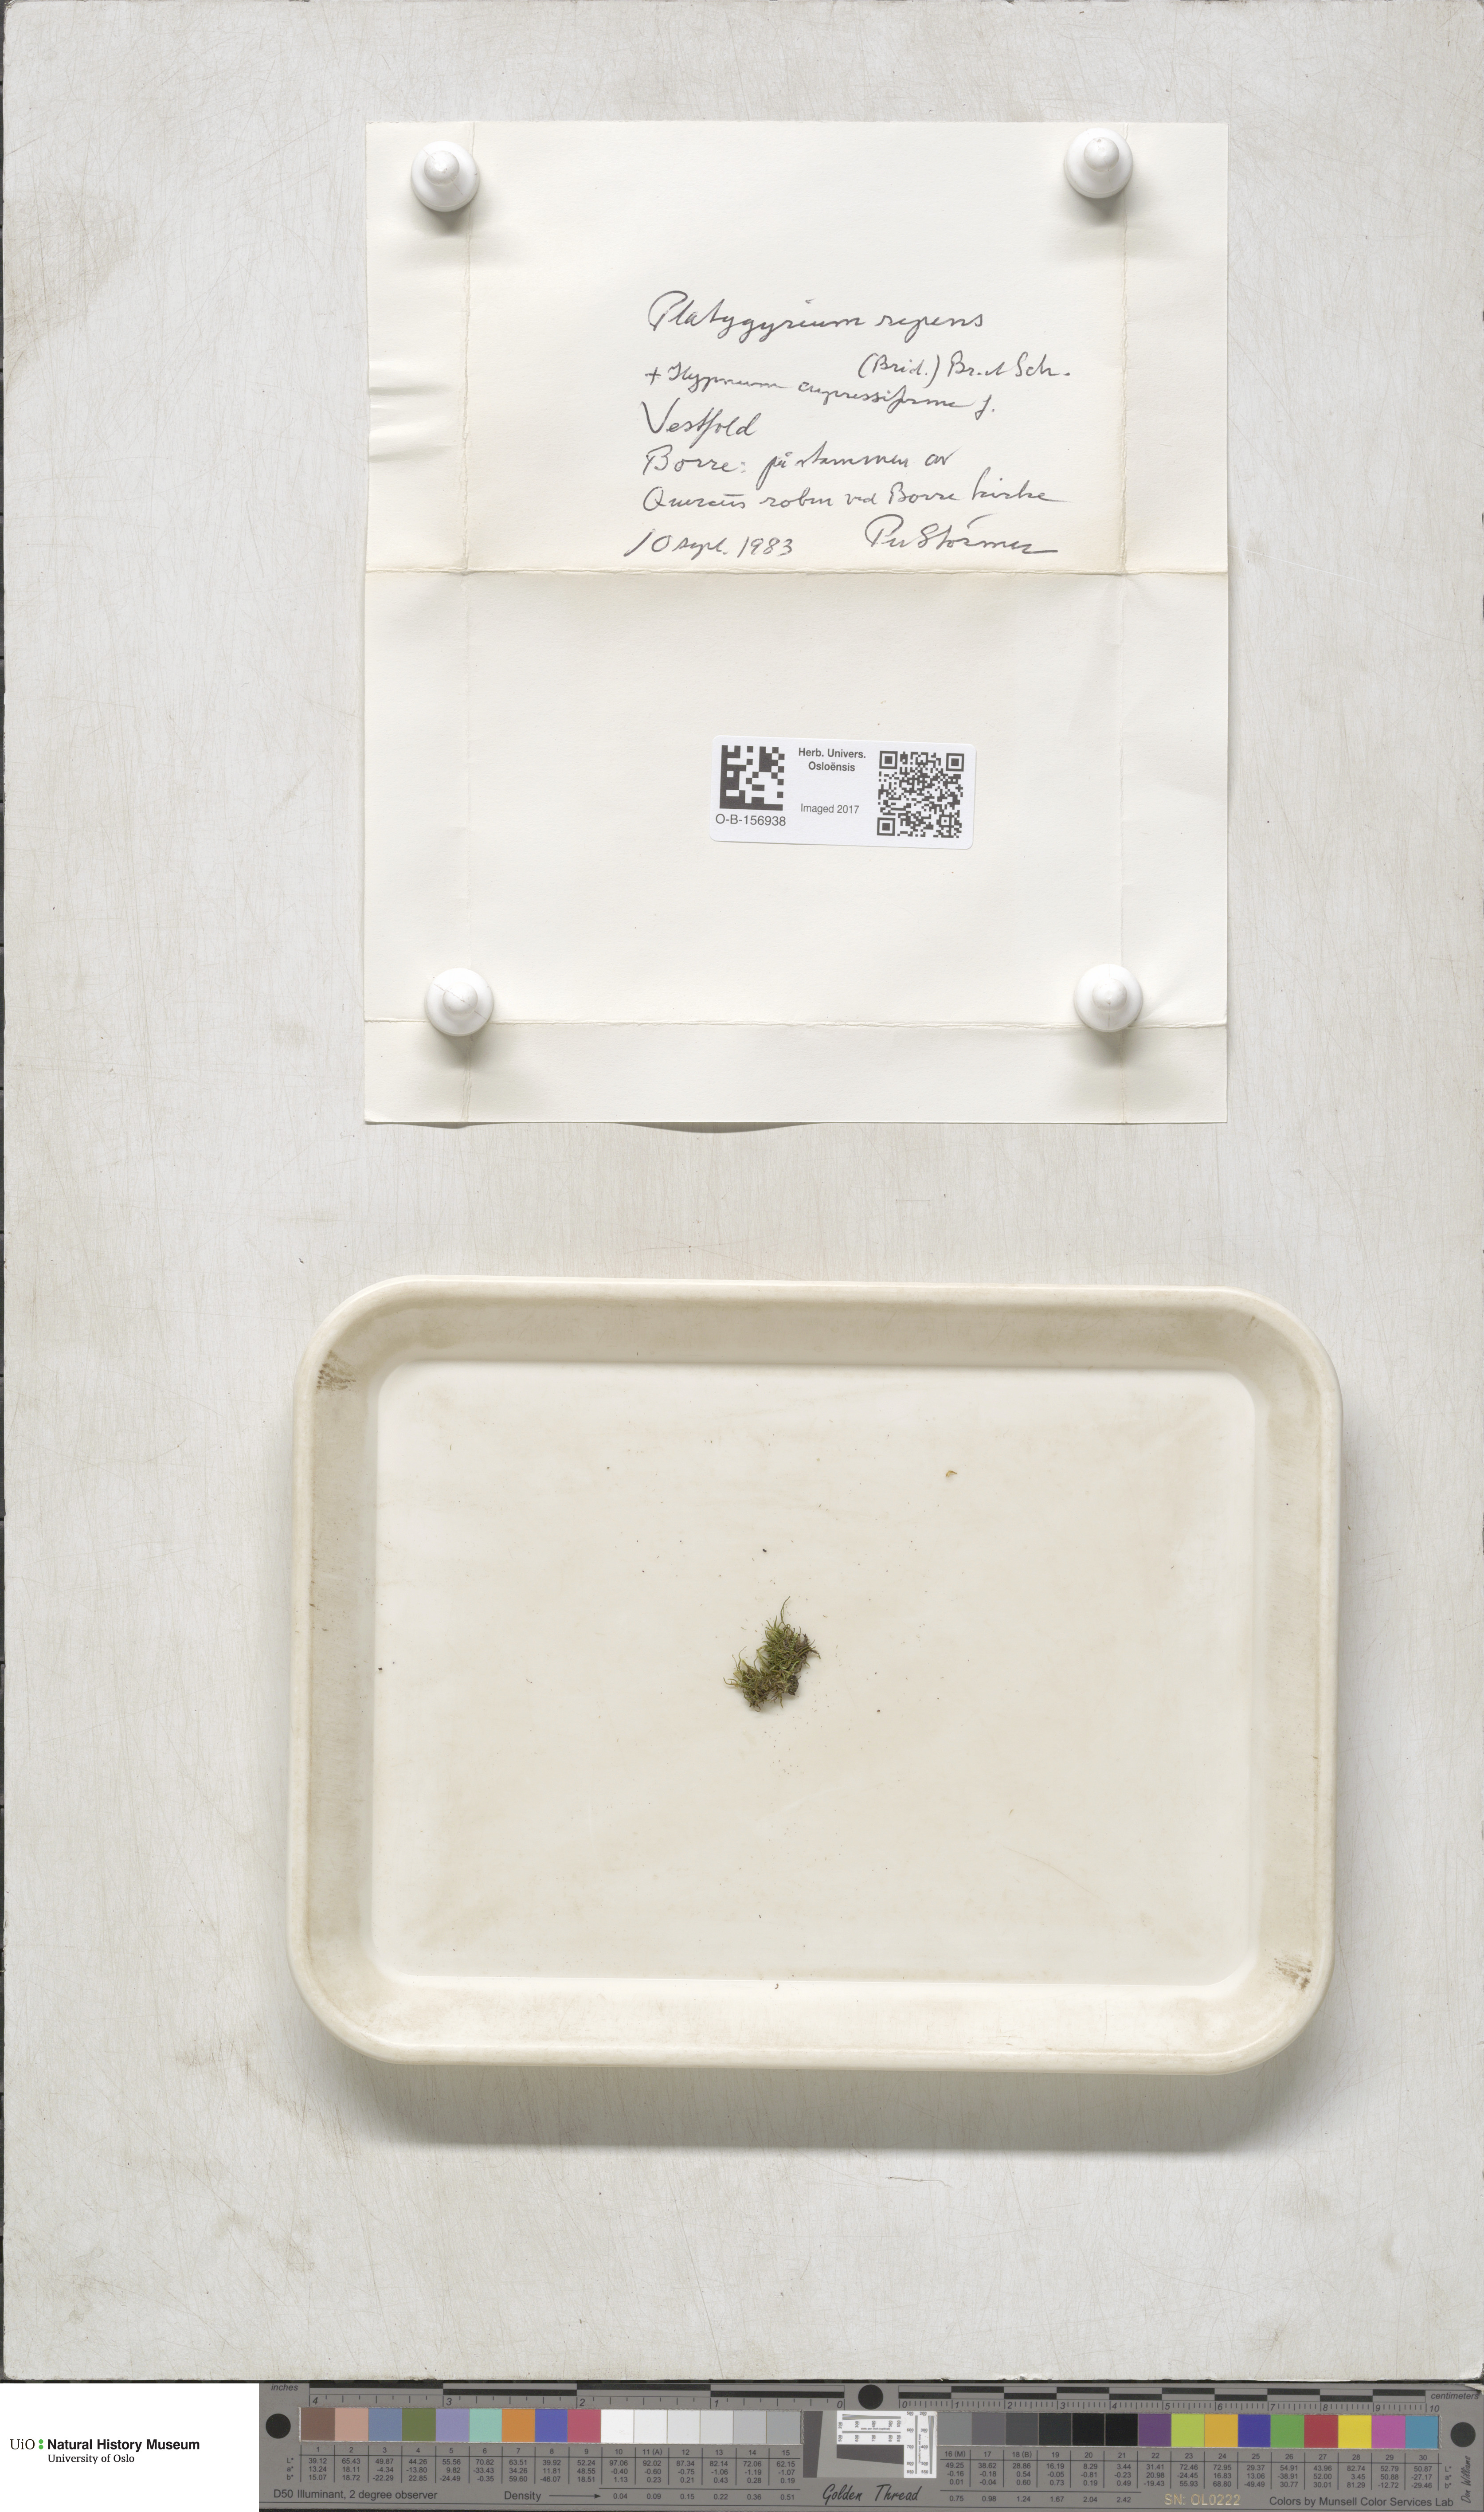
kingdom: Plantae
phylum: Bryophyta
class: Bryopsida
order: Hypnales
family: Pylaisiadelphaceae
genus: Platygyrium
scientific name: Platygyrium repens
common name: Flat-brocade moss
